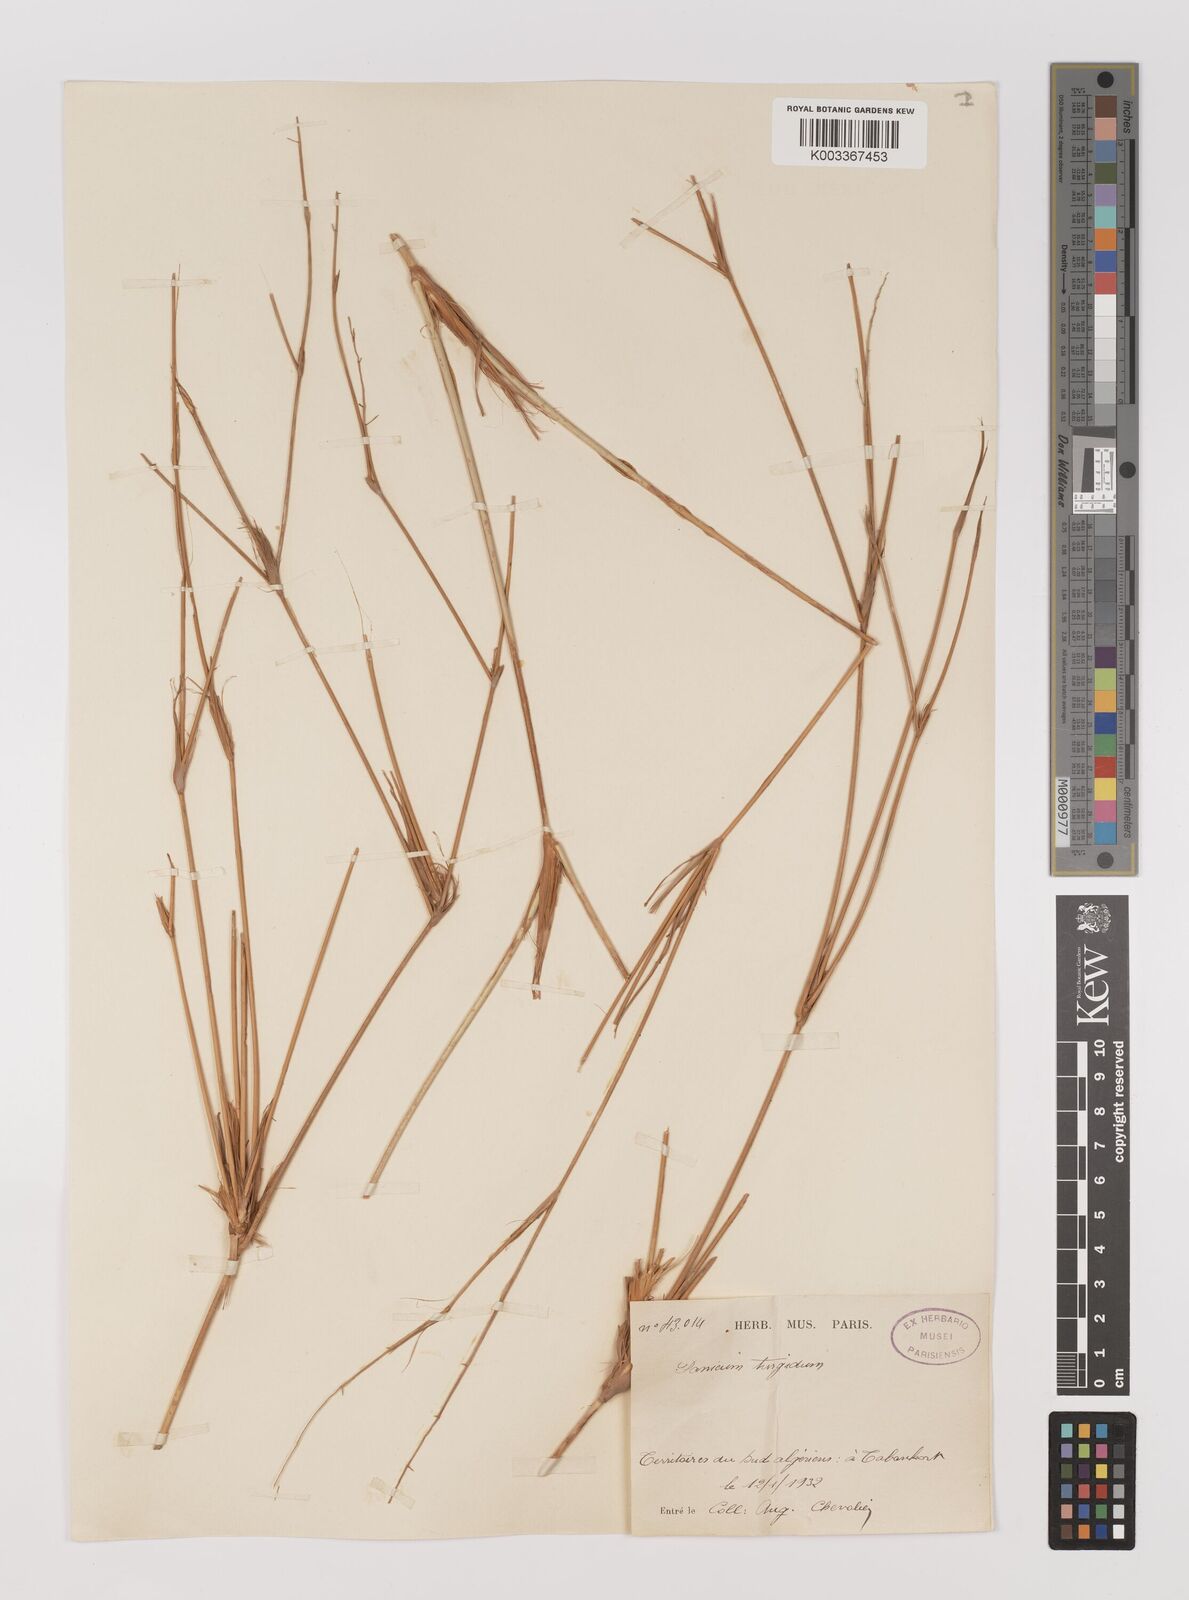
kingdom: Plantae
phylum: Tracheophyta
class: Liliopsida
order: Poales
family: Poaceae
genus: Panicum
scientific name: Panicum turgidum
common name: Desert grass
